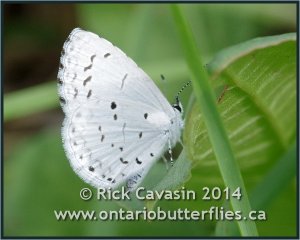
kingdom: Animalia
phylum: Arthropoda
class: Insecta
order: Lepidoptera
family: Lycaenidae
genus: Cyaniris
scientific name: Cyaniris neglecta
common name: Summer Azure
